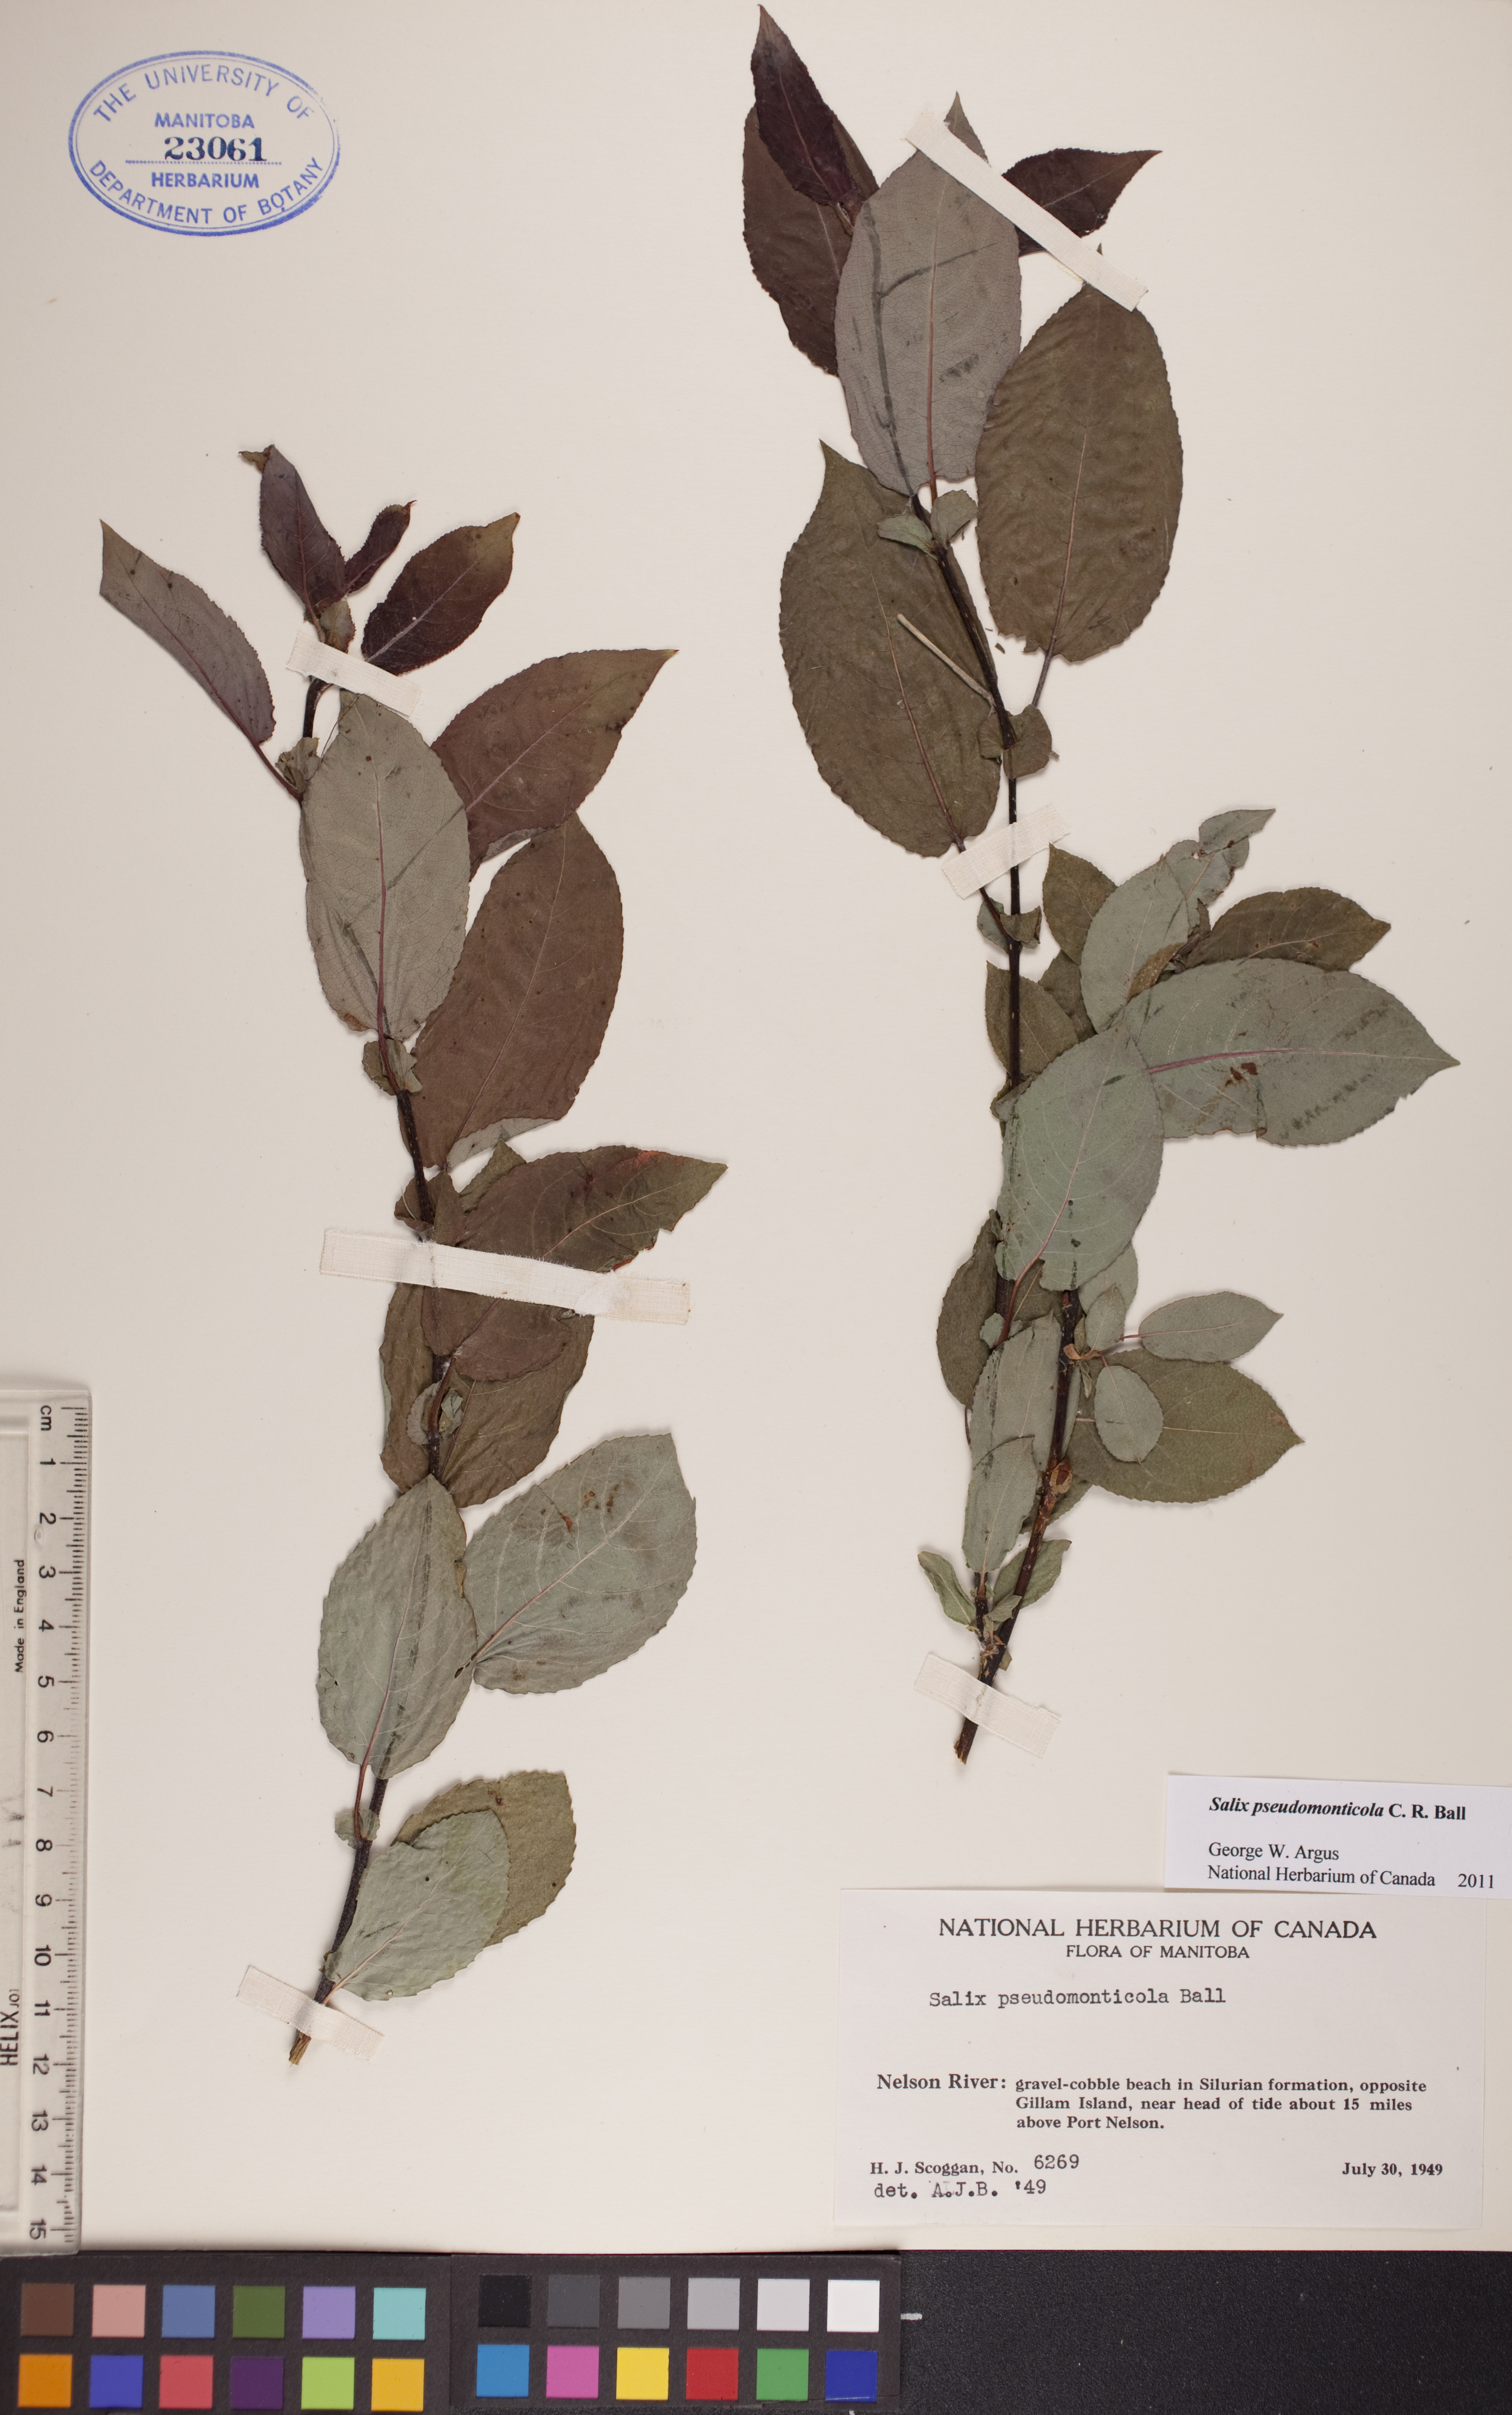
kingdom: Plantae
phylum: Tracheophyta
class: Magnoliopsida
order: Malpighiales
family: Salicaceae
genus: Salix
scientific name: Salix pseudomonticola
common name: Cherry-leaved willow
